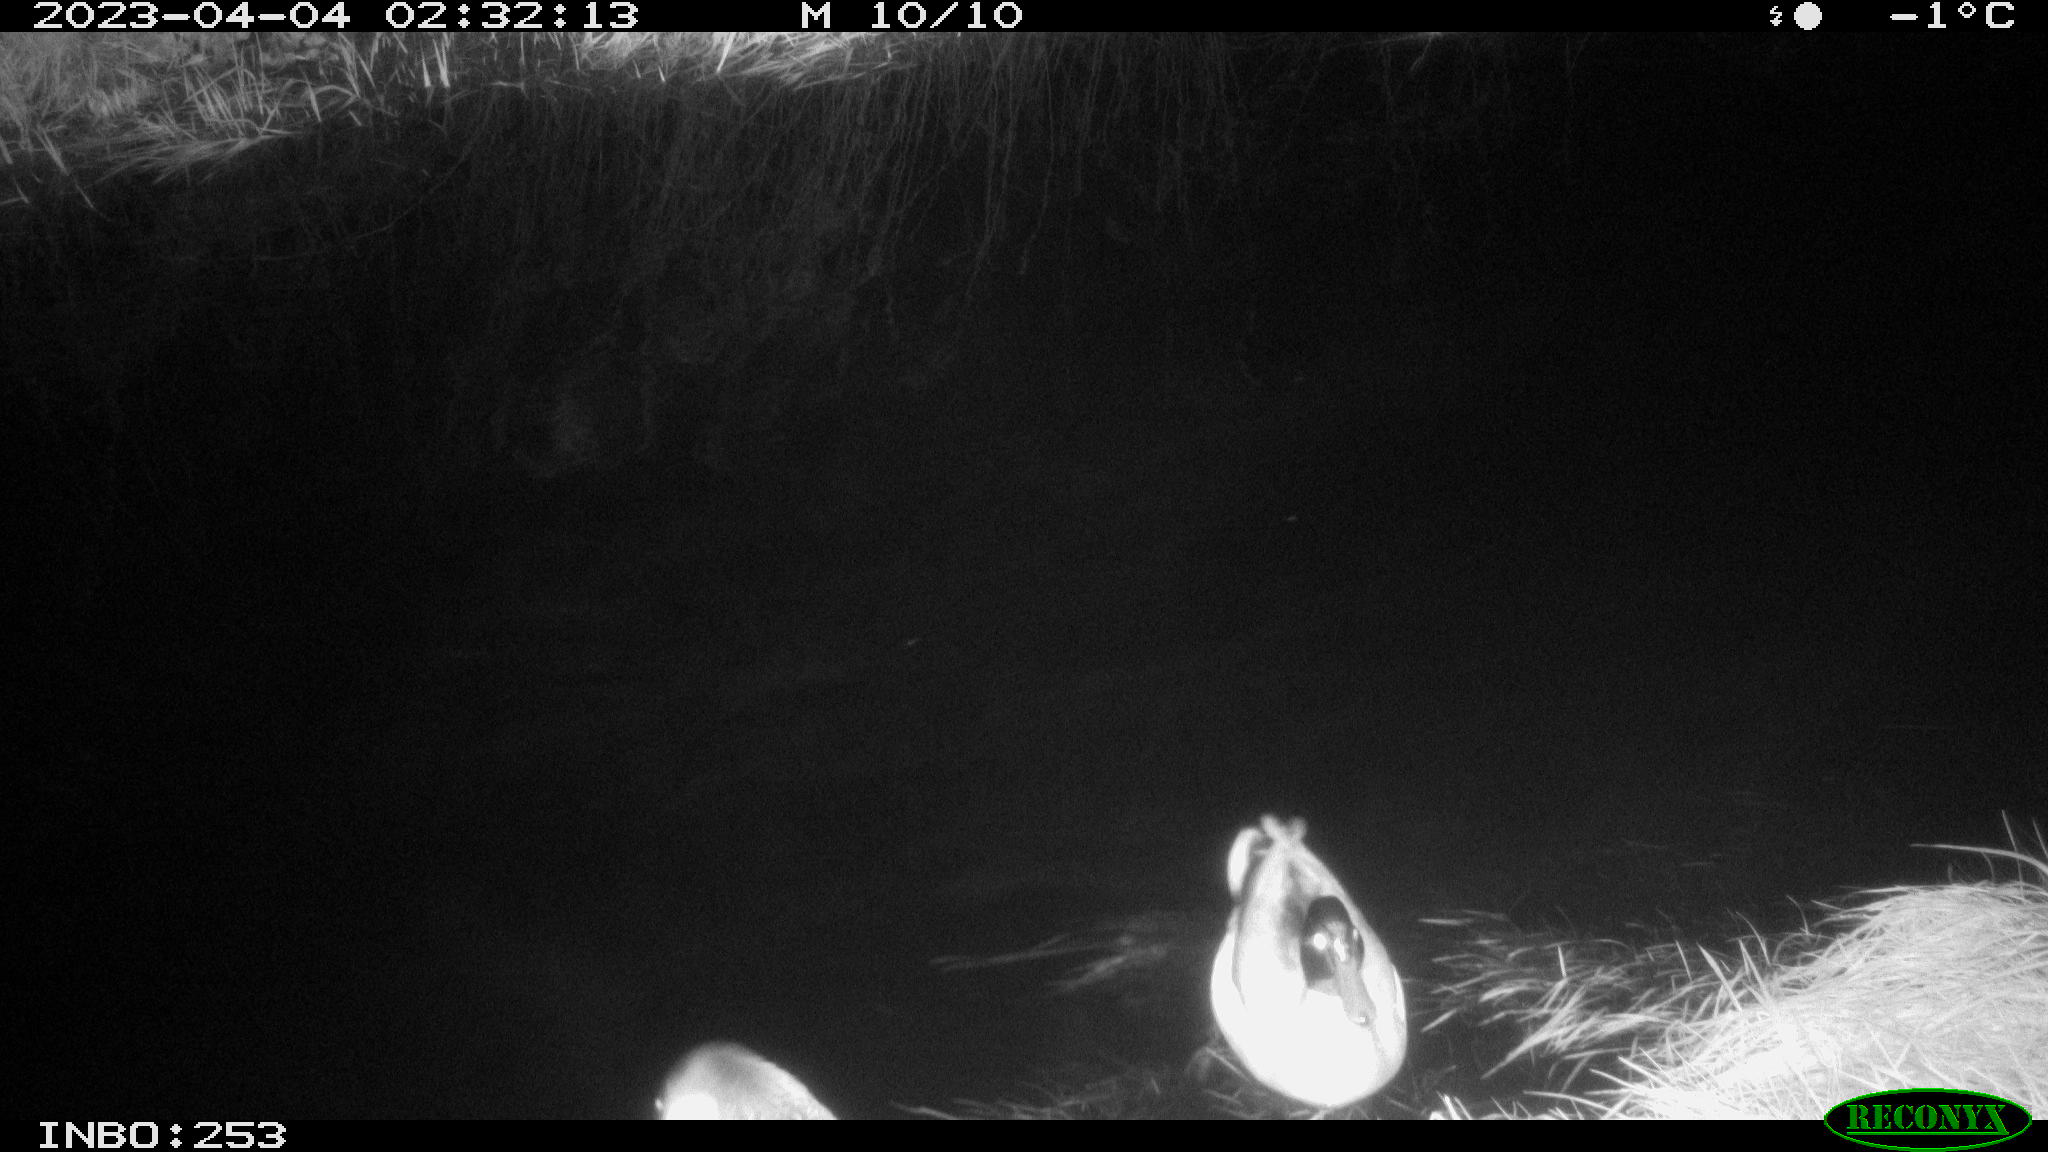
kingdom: Animalia
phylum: Chordata
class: Aves
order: Anseriformes
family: Anatidae
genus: Anas
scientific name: Anas
